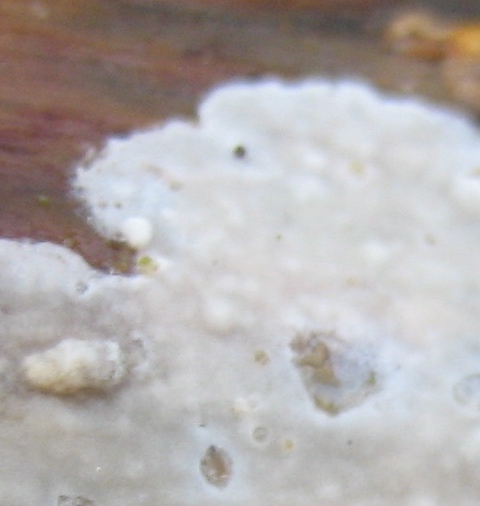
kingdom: Fungi
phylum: Basidiomycota
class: Agaricomycetes
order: Corticiales
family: Corticiaceae
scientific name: Corticiaceae
